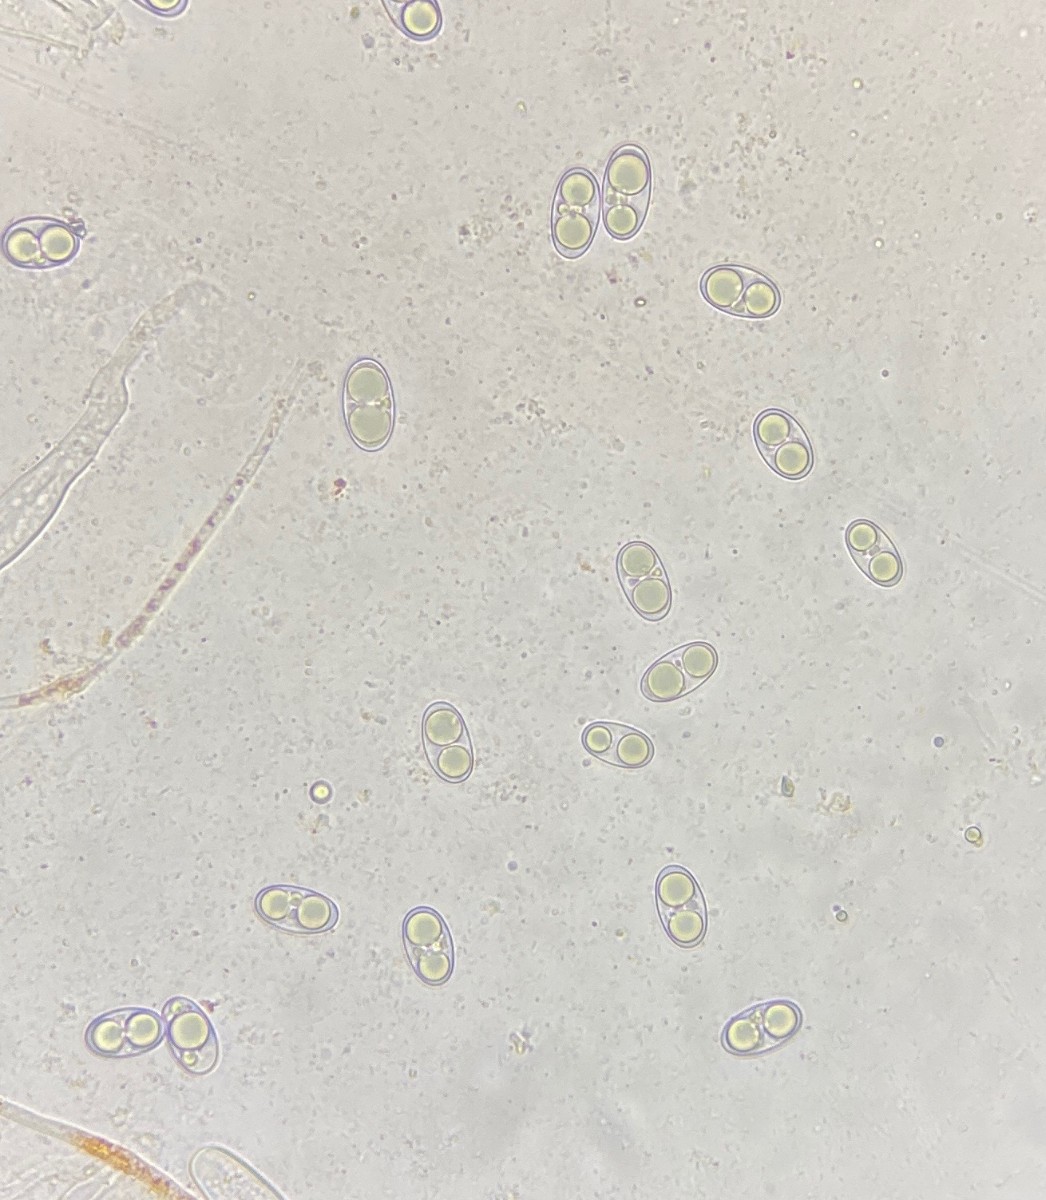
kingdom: Fungi
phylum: Ascomycota
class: Pezizomycetes
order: Pezizales
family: Pyronemataceae
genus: Octospora
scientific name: Octospora humosa
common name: Hotlips
